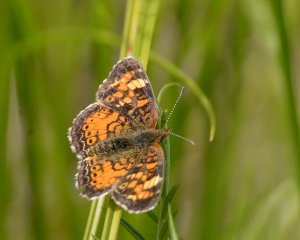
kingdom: Animalia
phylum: Arthropoda
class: Insecta
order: Lepidoptera
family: Nymphalidae
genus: Phyciodes
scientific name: Phyciodes tharos
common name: Northern Crescent
